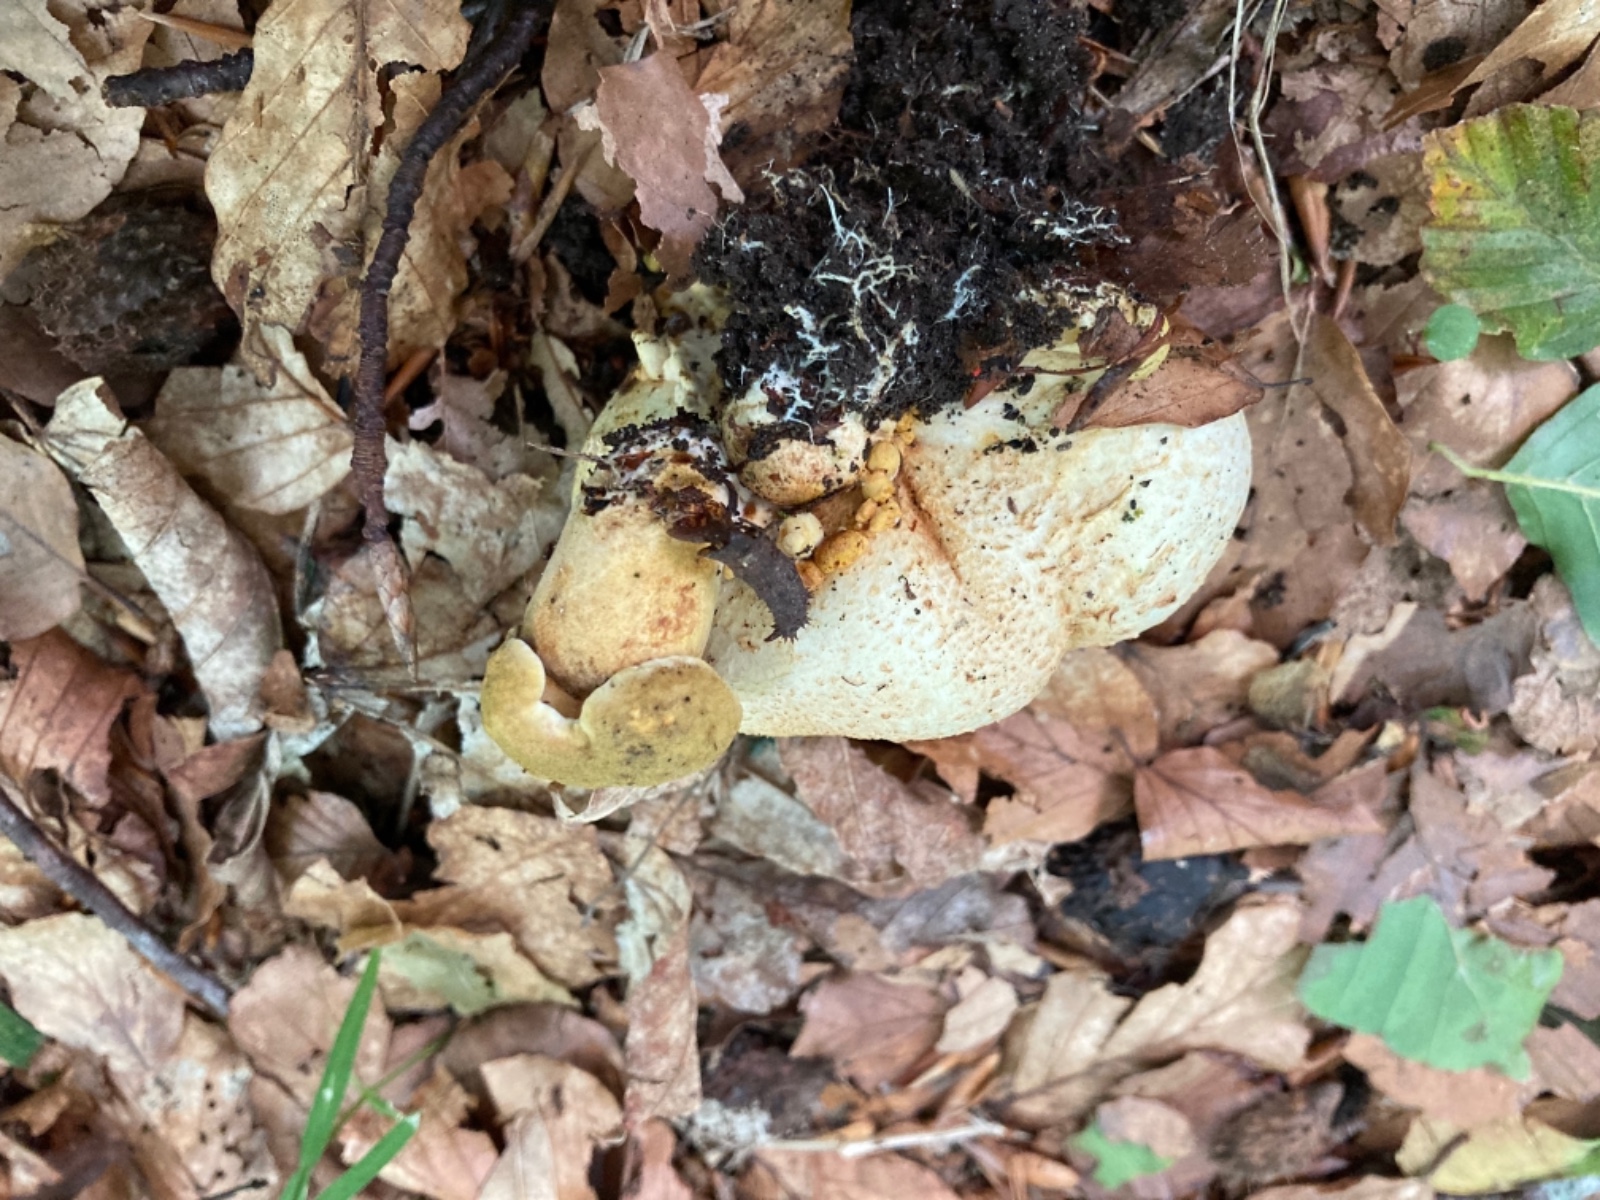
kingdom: Fungi
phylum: Basidiomycota
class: Agaricomycetes
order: Boletales
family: Boletaceae
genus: Pseudoboletus
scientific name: Pseudoboletus parasiticus
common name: snyltende rørhat
